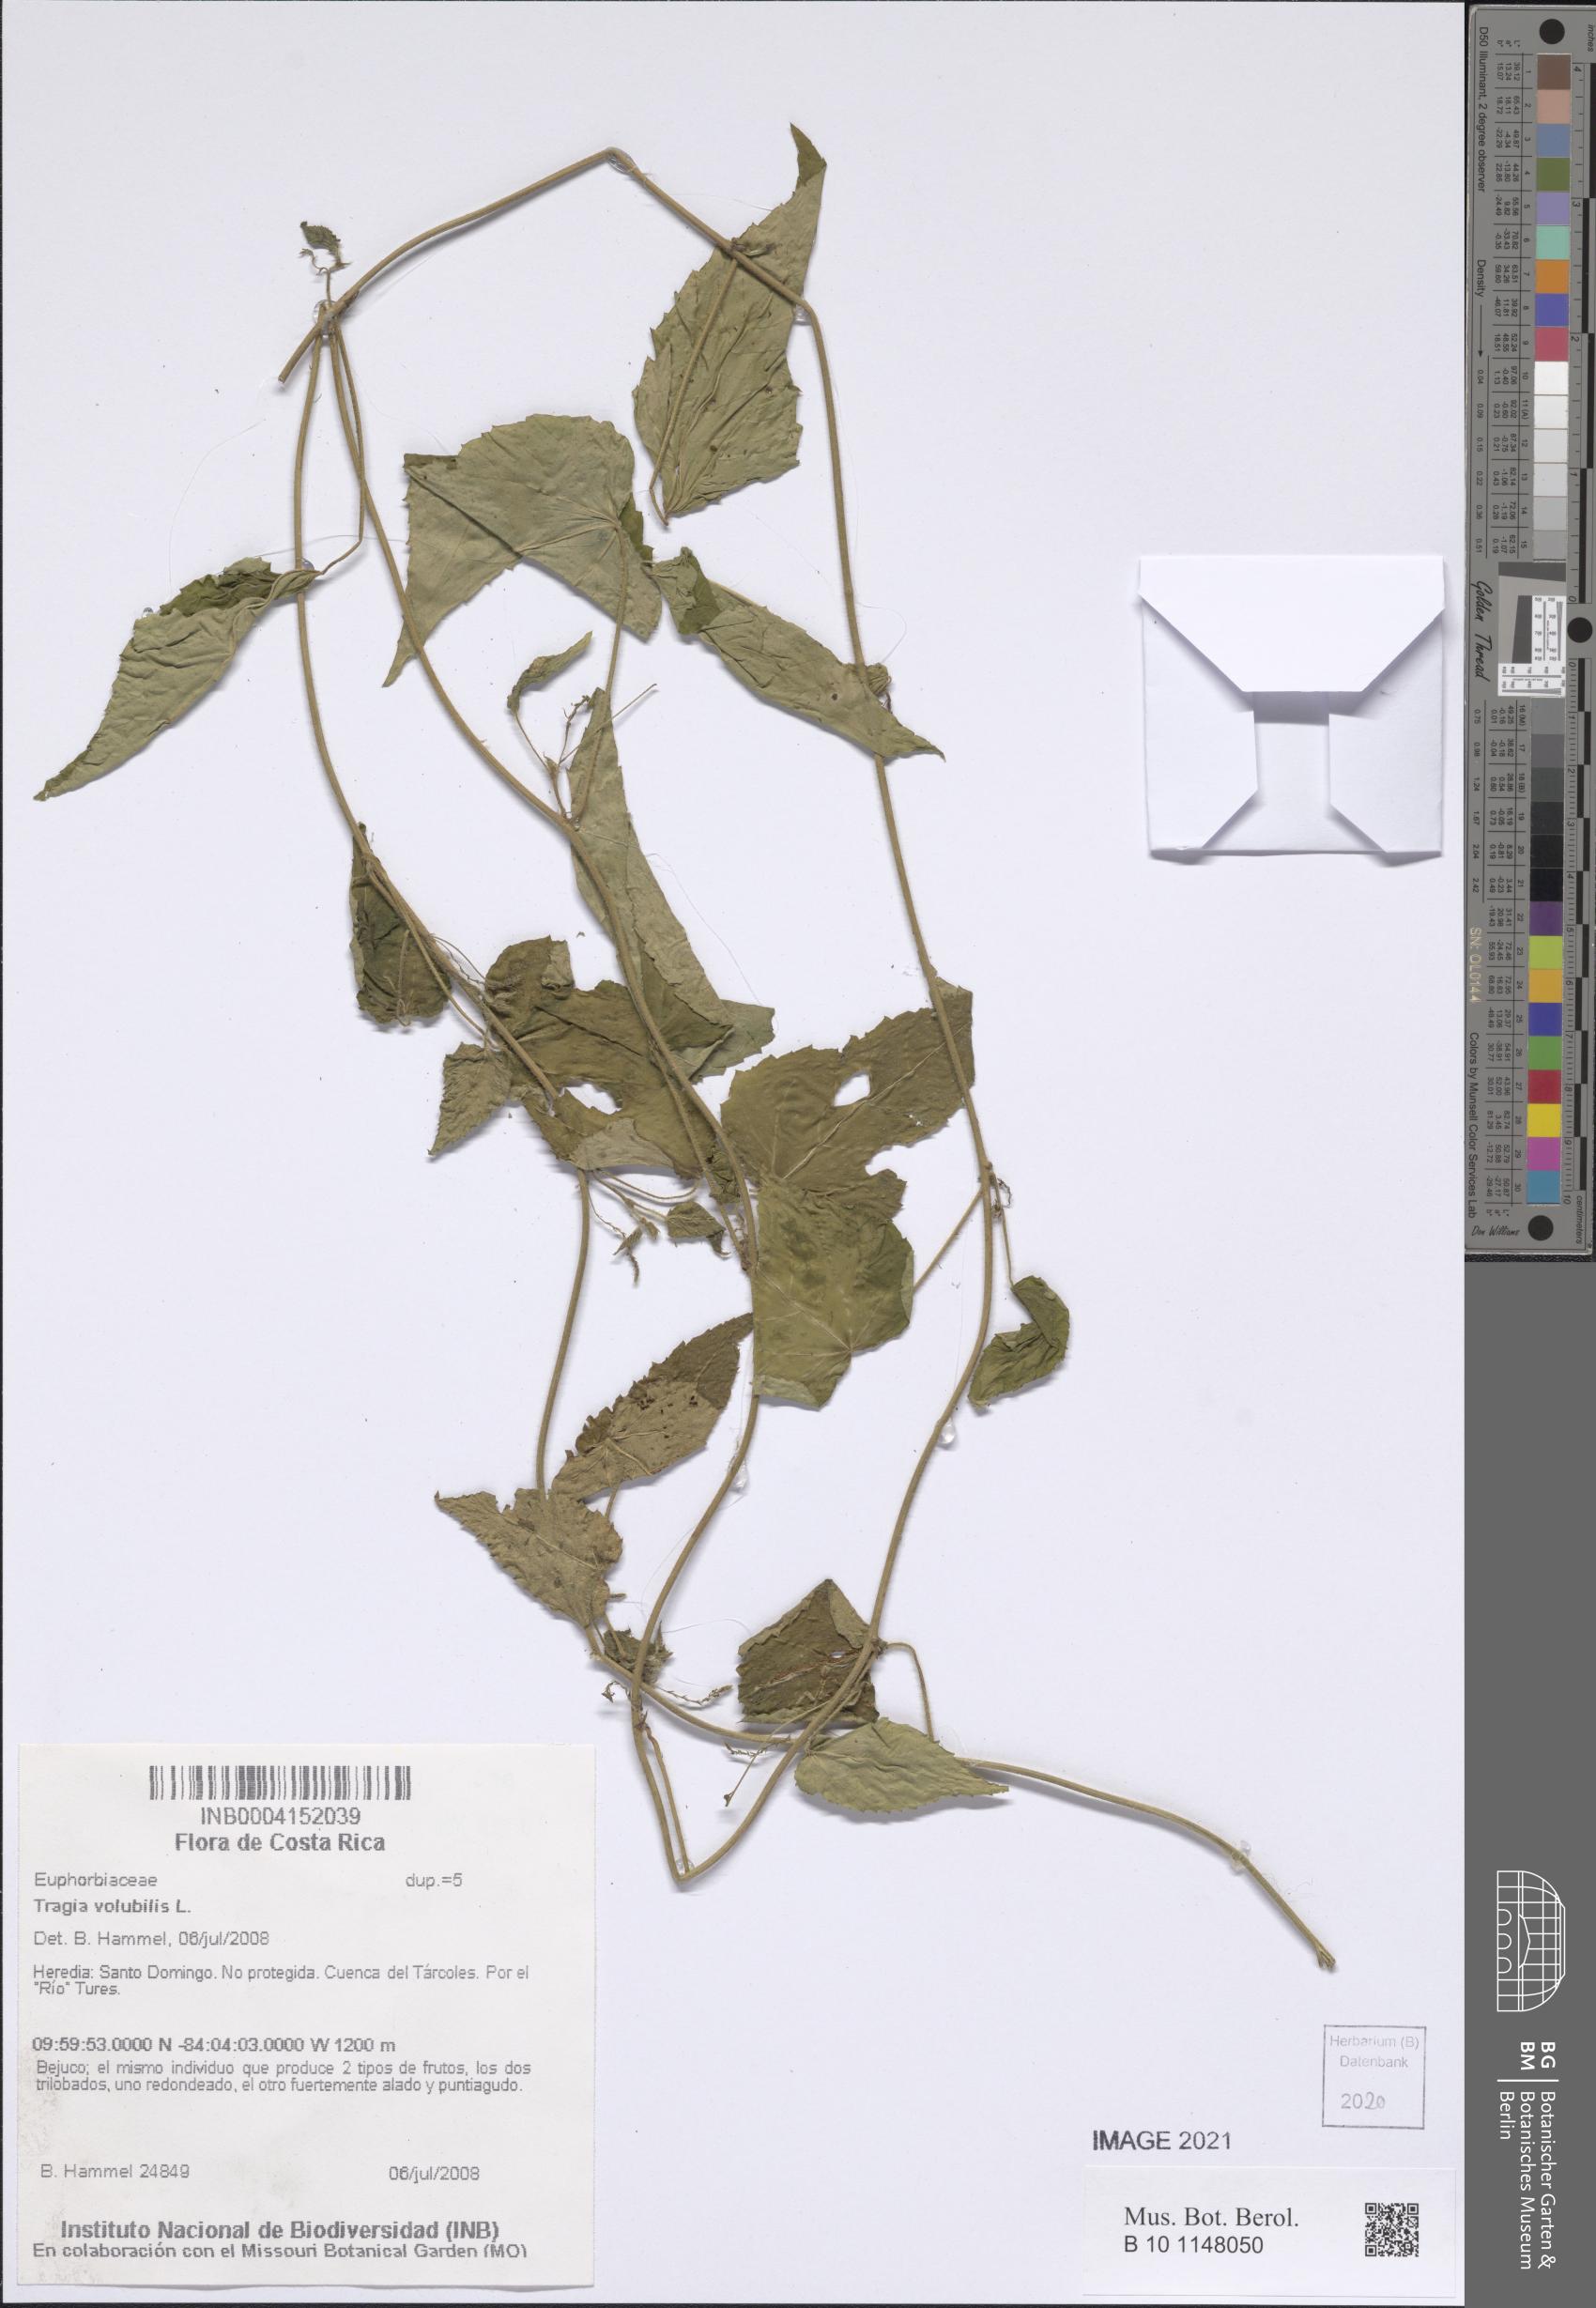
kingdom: Plantae
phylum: Tracheophyta
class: Magnoliopsida
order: Malpighiales
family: Euphorbiaceae
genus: Tragia
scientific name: Tragia volubilis
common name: Twining cow-itch
